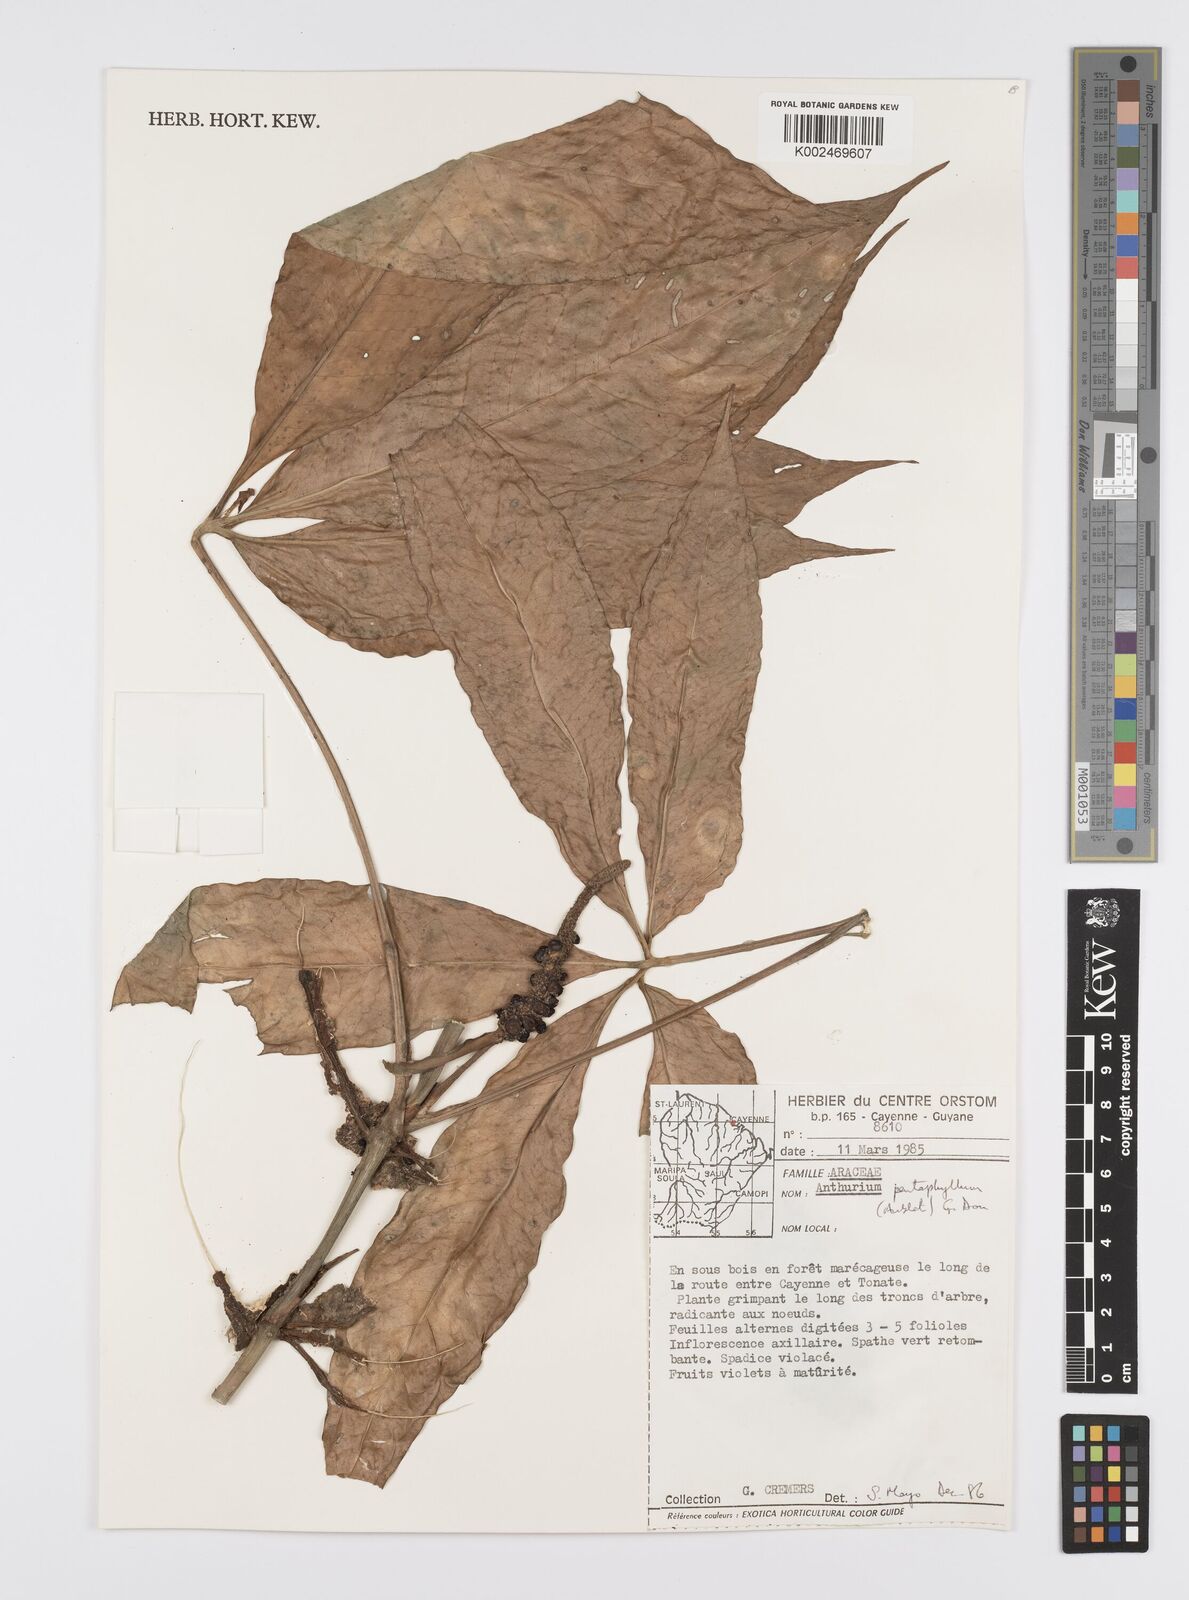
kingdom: Plantae
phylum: Tracheophyta
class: Liliopsida
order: Alismatales
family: Araceae
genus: Anthurium
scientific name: Anthurium pentaphyllum
